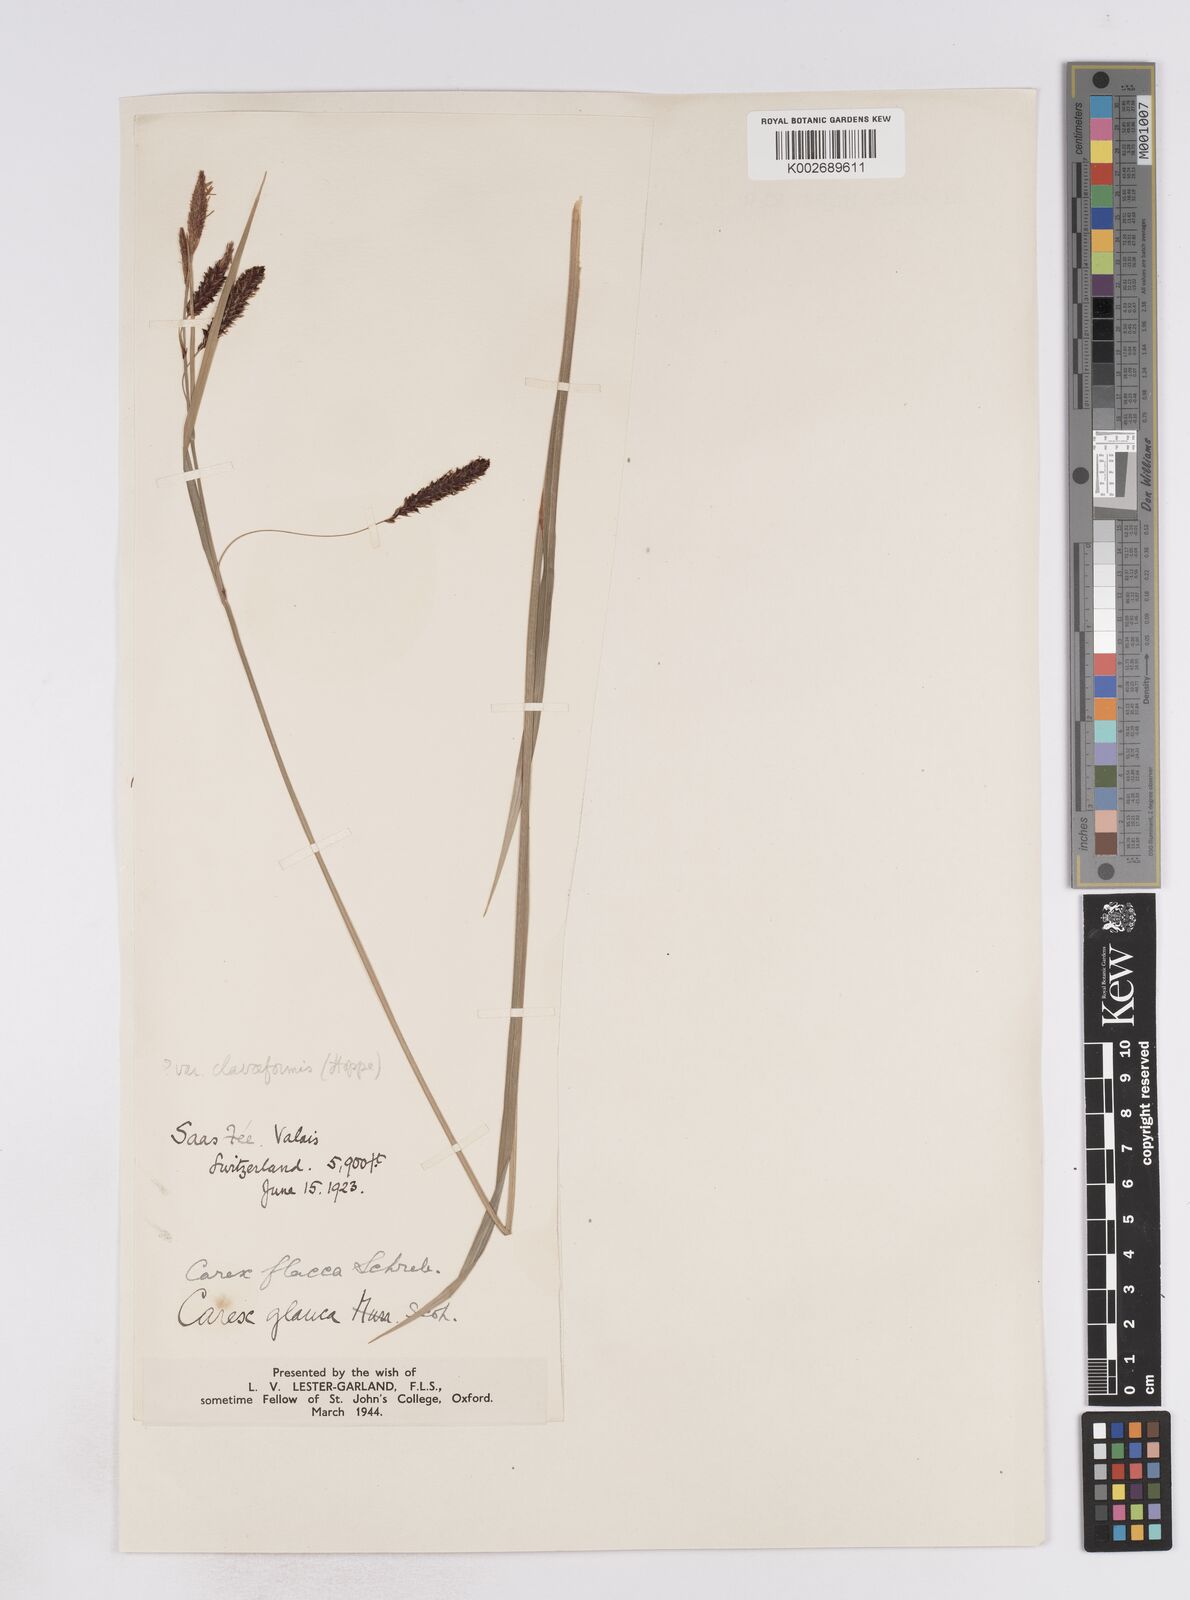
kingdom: Plantae
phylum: Tracheophyta
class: Liliopsida
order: Poales
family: Cyperaceae
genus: Carex
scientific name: Carex flacca
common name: Glaucous sedge
